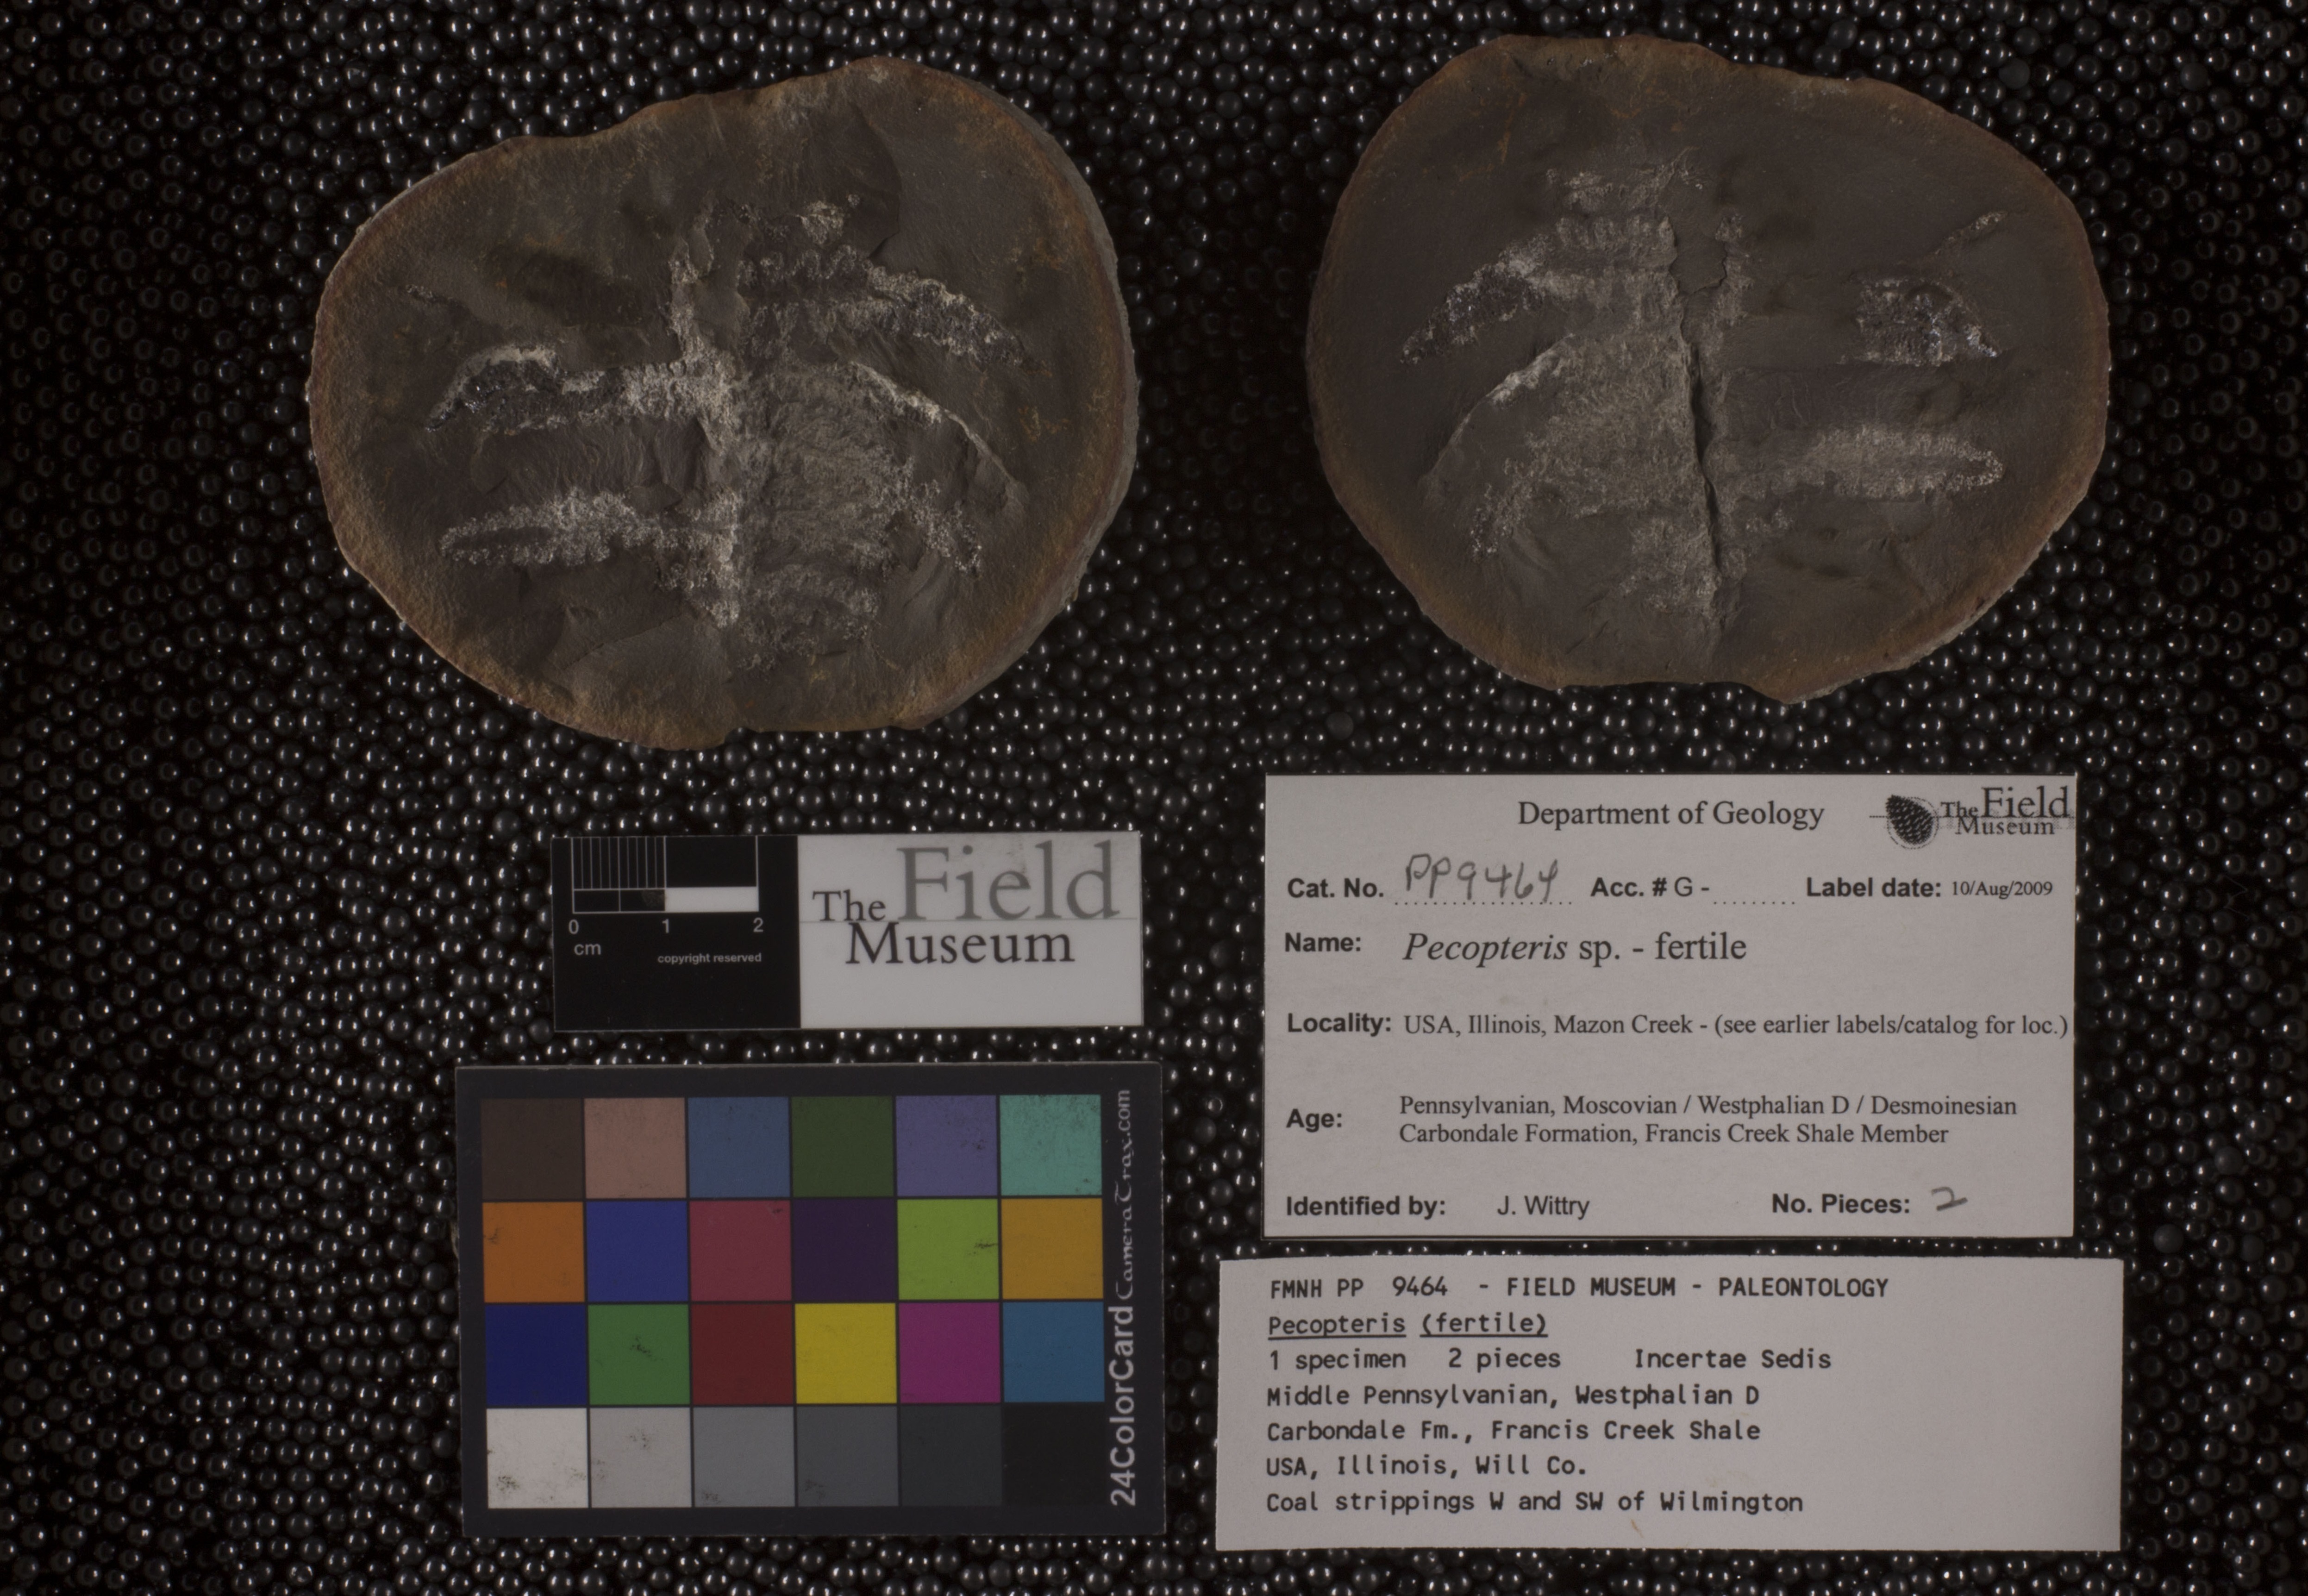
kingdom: Plantae
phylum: Tracheophyta
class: Polypodiopsida
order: Marattiales
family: Asterothecaceae
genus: Pecopteris
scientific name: Pecopteris
